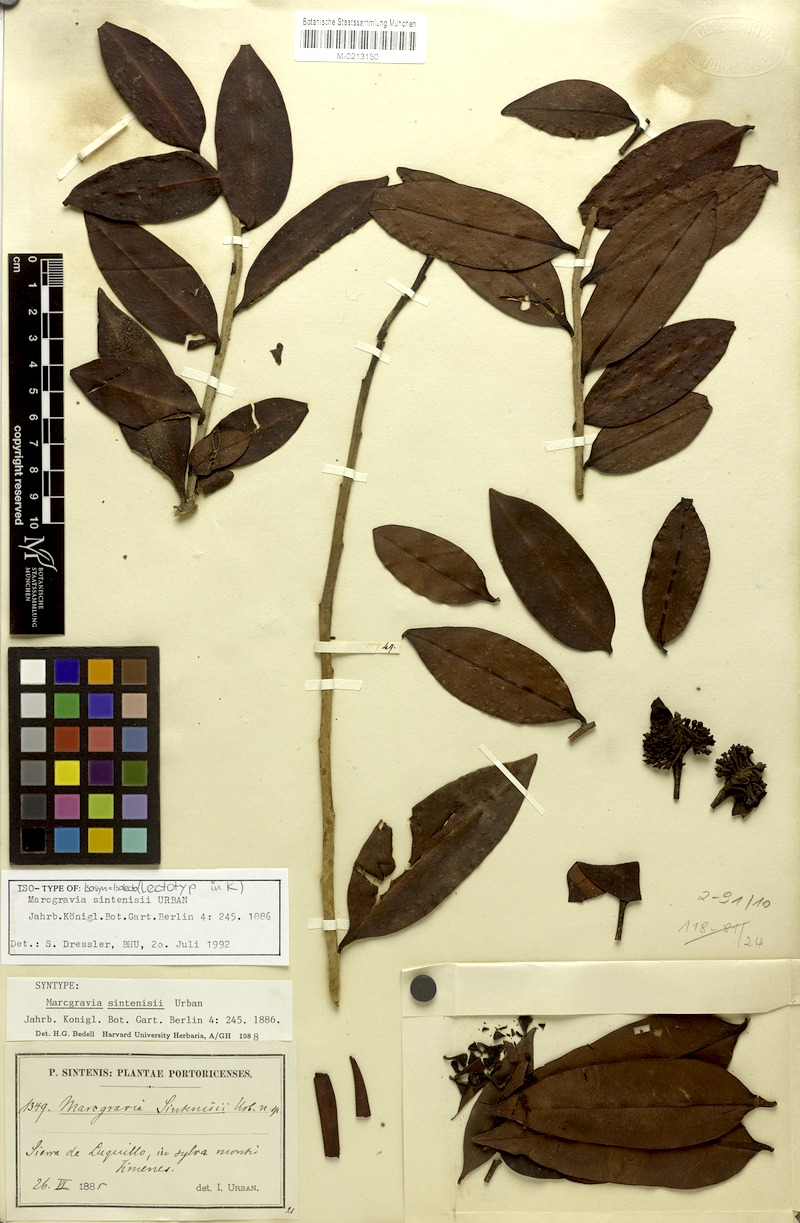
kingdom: Plantae
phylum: Tracheophyta
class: Magnoliopsida
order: Ericales
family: Marcgraviaceae
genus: Marcgravia
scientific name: Marcgravia sintenisii
